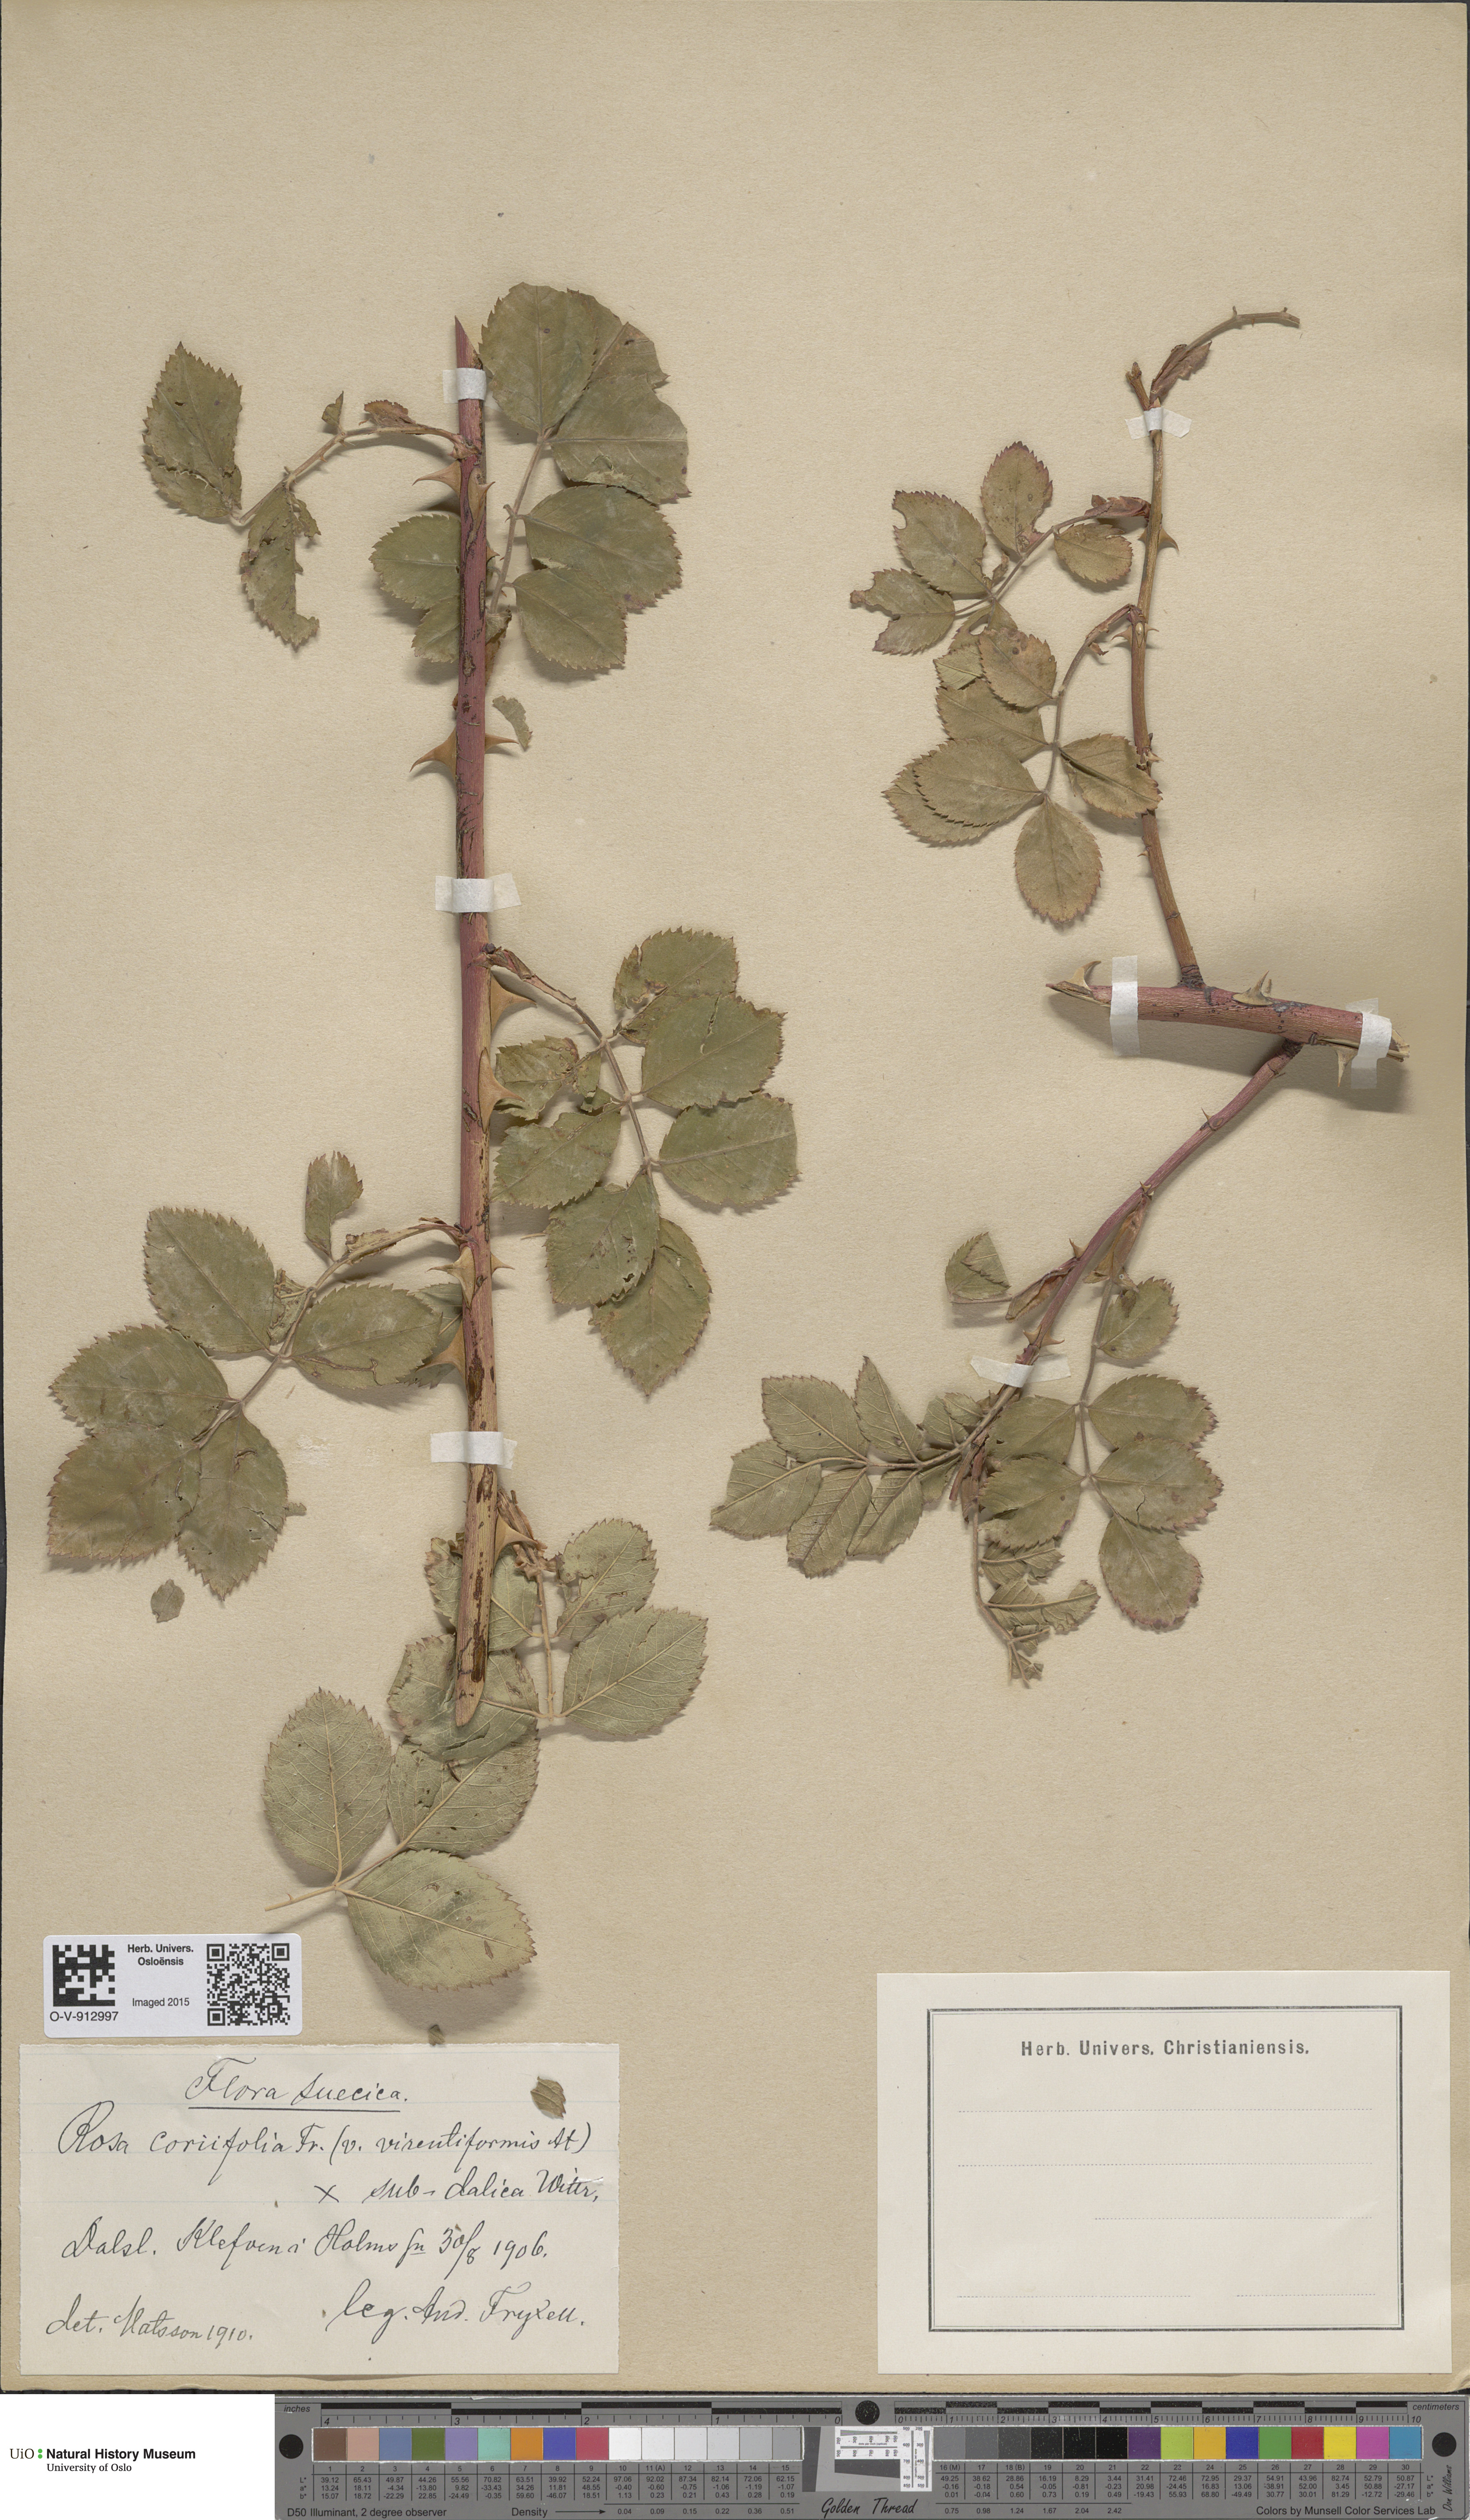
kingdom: Plantae
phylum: Tracheophyta
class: Magnoliopsida
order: Rosales
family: Rosaceae
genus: Rosa
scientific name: Rosa caesia
